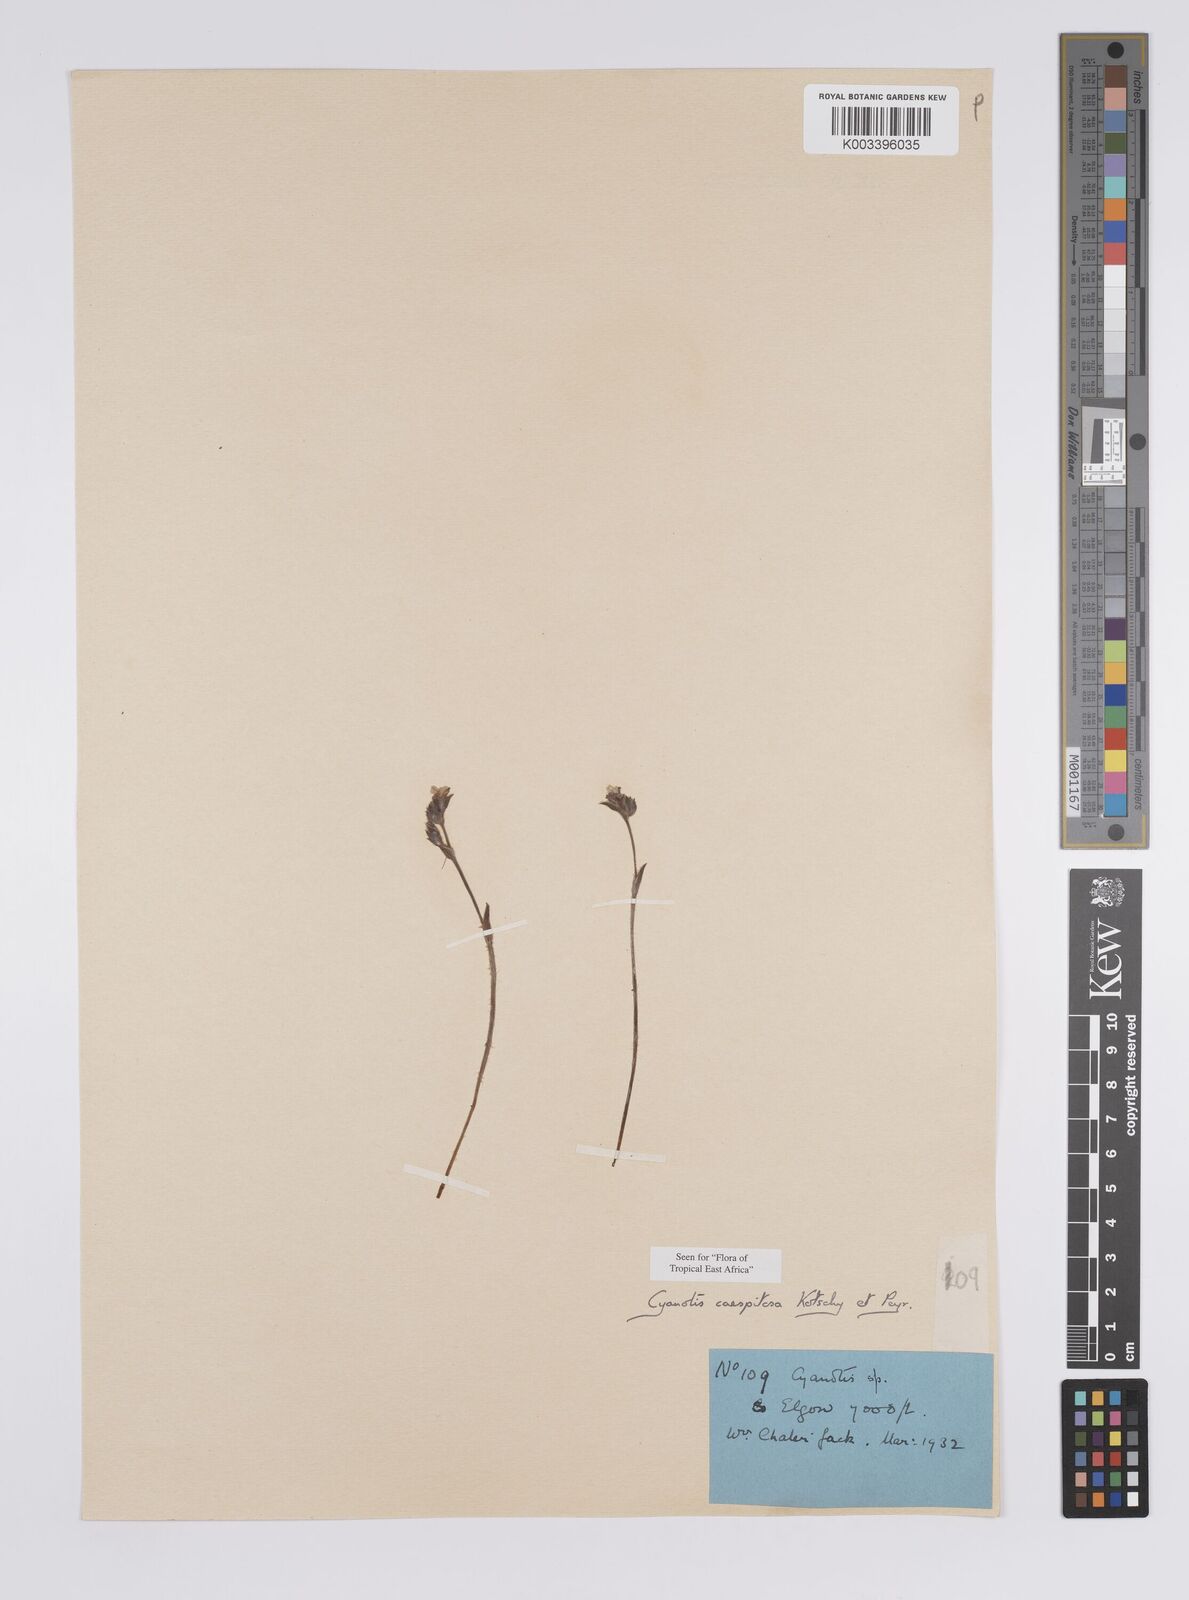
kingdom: Plantae
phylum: Tracheophyta
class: Liliopsida
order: Commelinales
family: Commelinaceae
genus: Cyanotis
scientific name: Cyanotis caespitosa
